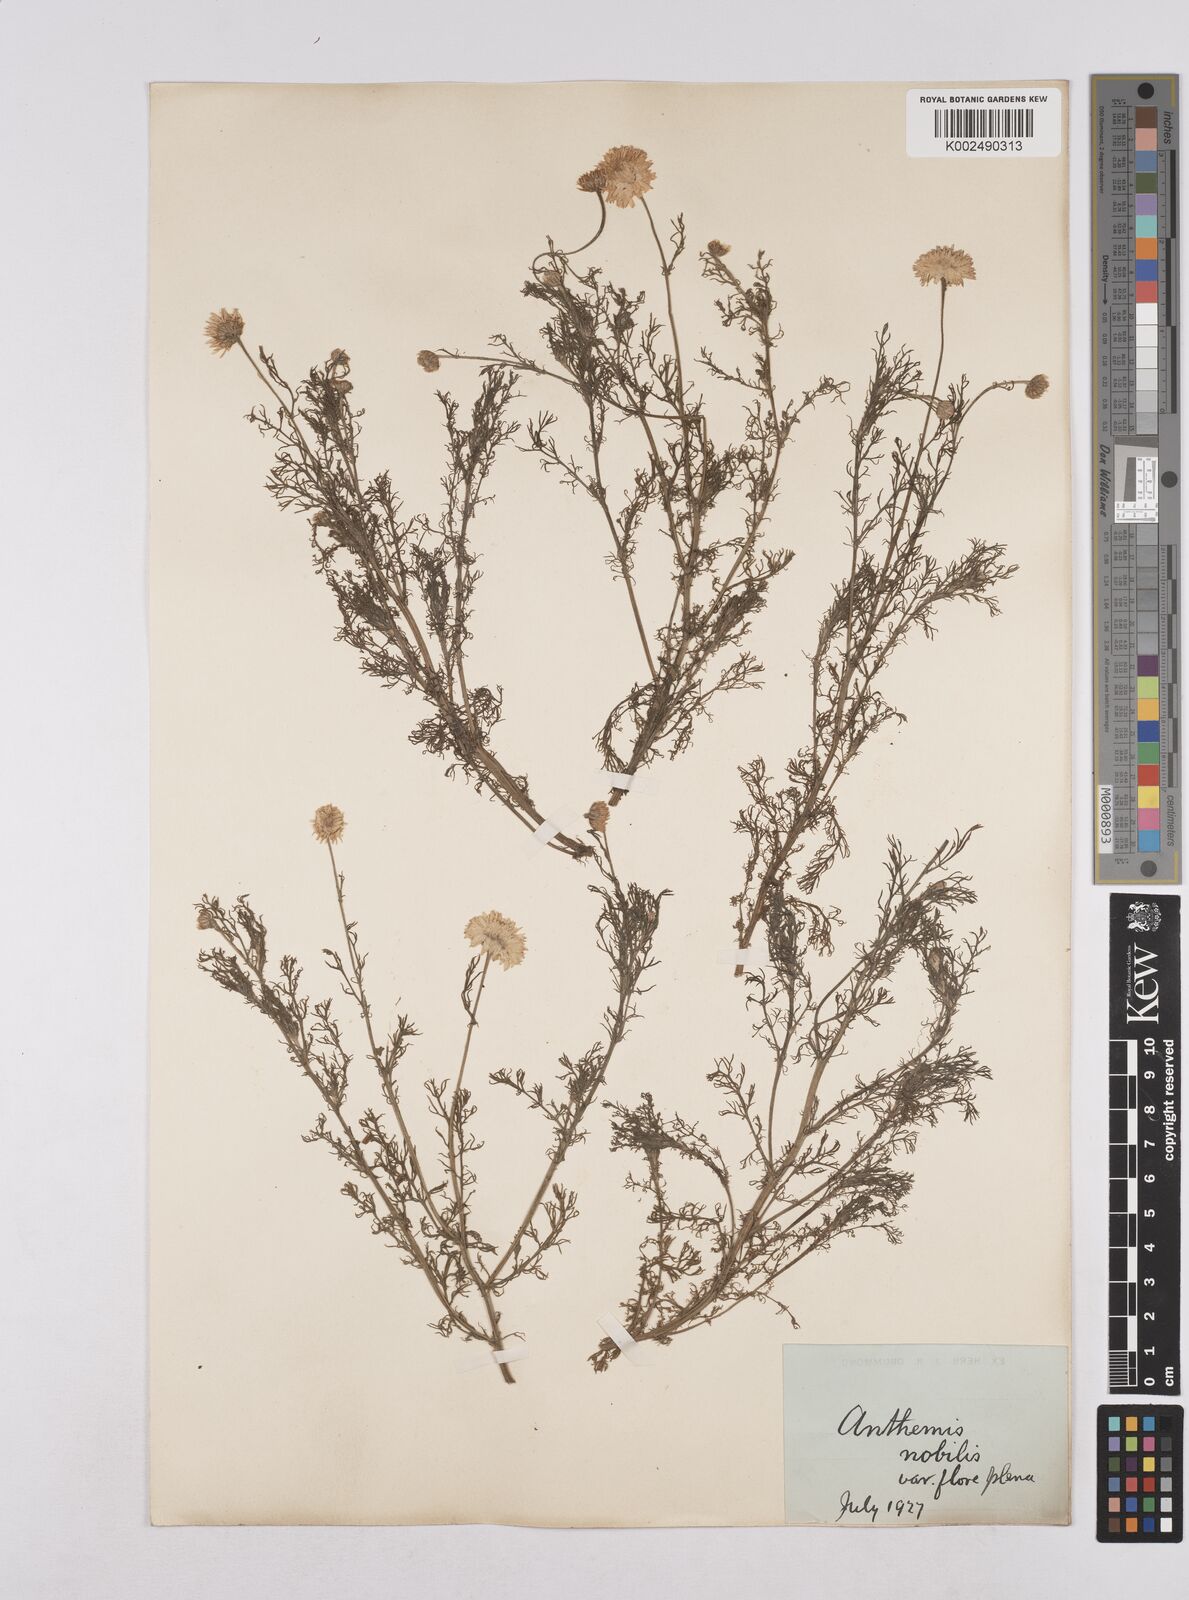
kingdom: Plantae
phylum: Tracheophyta
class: Magnoliopsida
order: Asterales
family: Asteraceae
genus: Chamaemelum
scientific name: Chamaemelum nobile
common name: Roman chamomile
